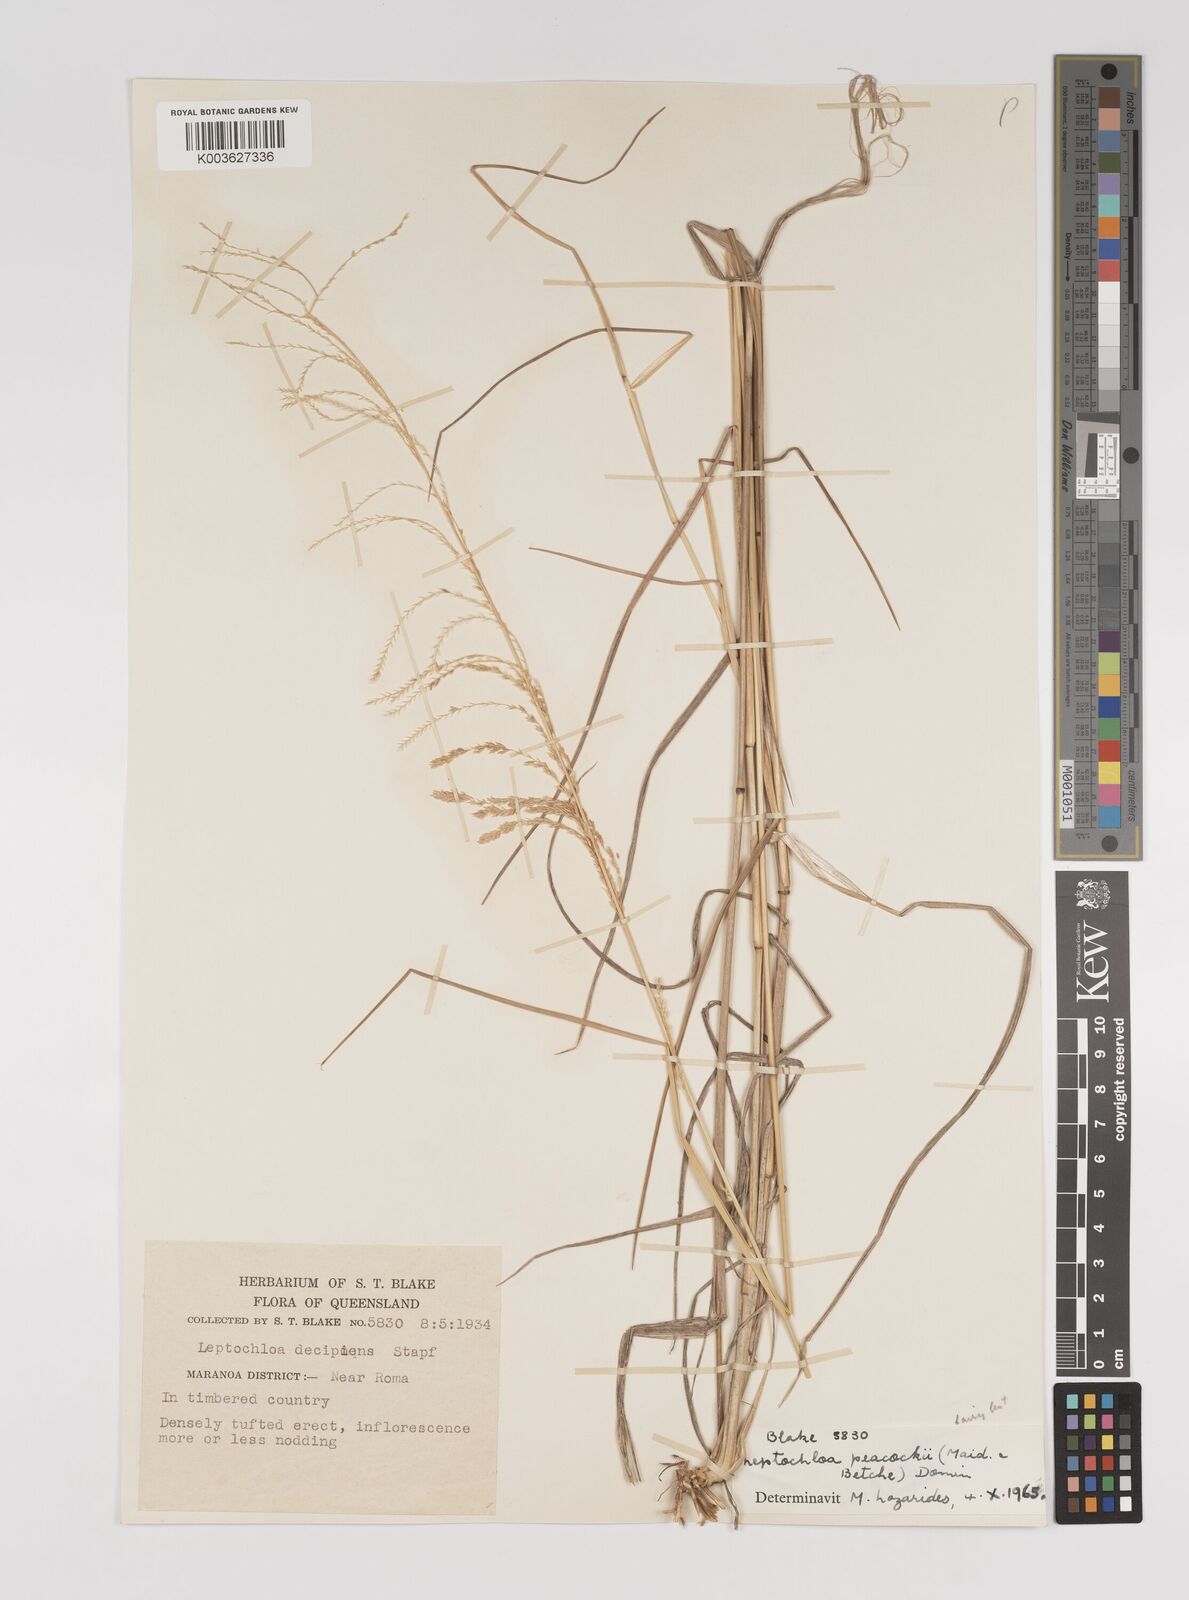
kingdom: Plantae
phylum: Tracheophyta
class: Liliopsida
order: Poales
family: Poaceae
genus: Leptochloa
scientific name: Leptochloa decipiens
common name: Australian sprangletop
